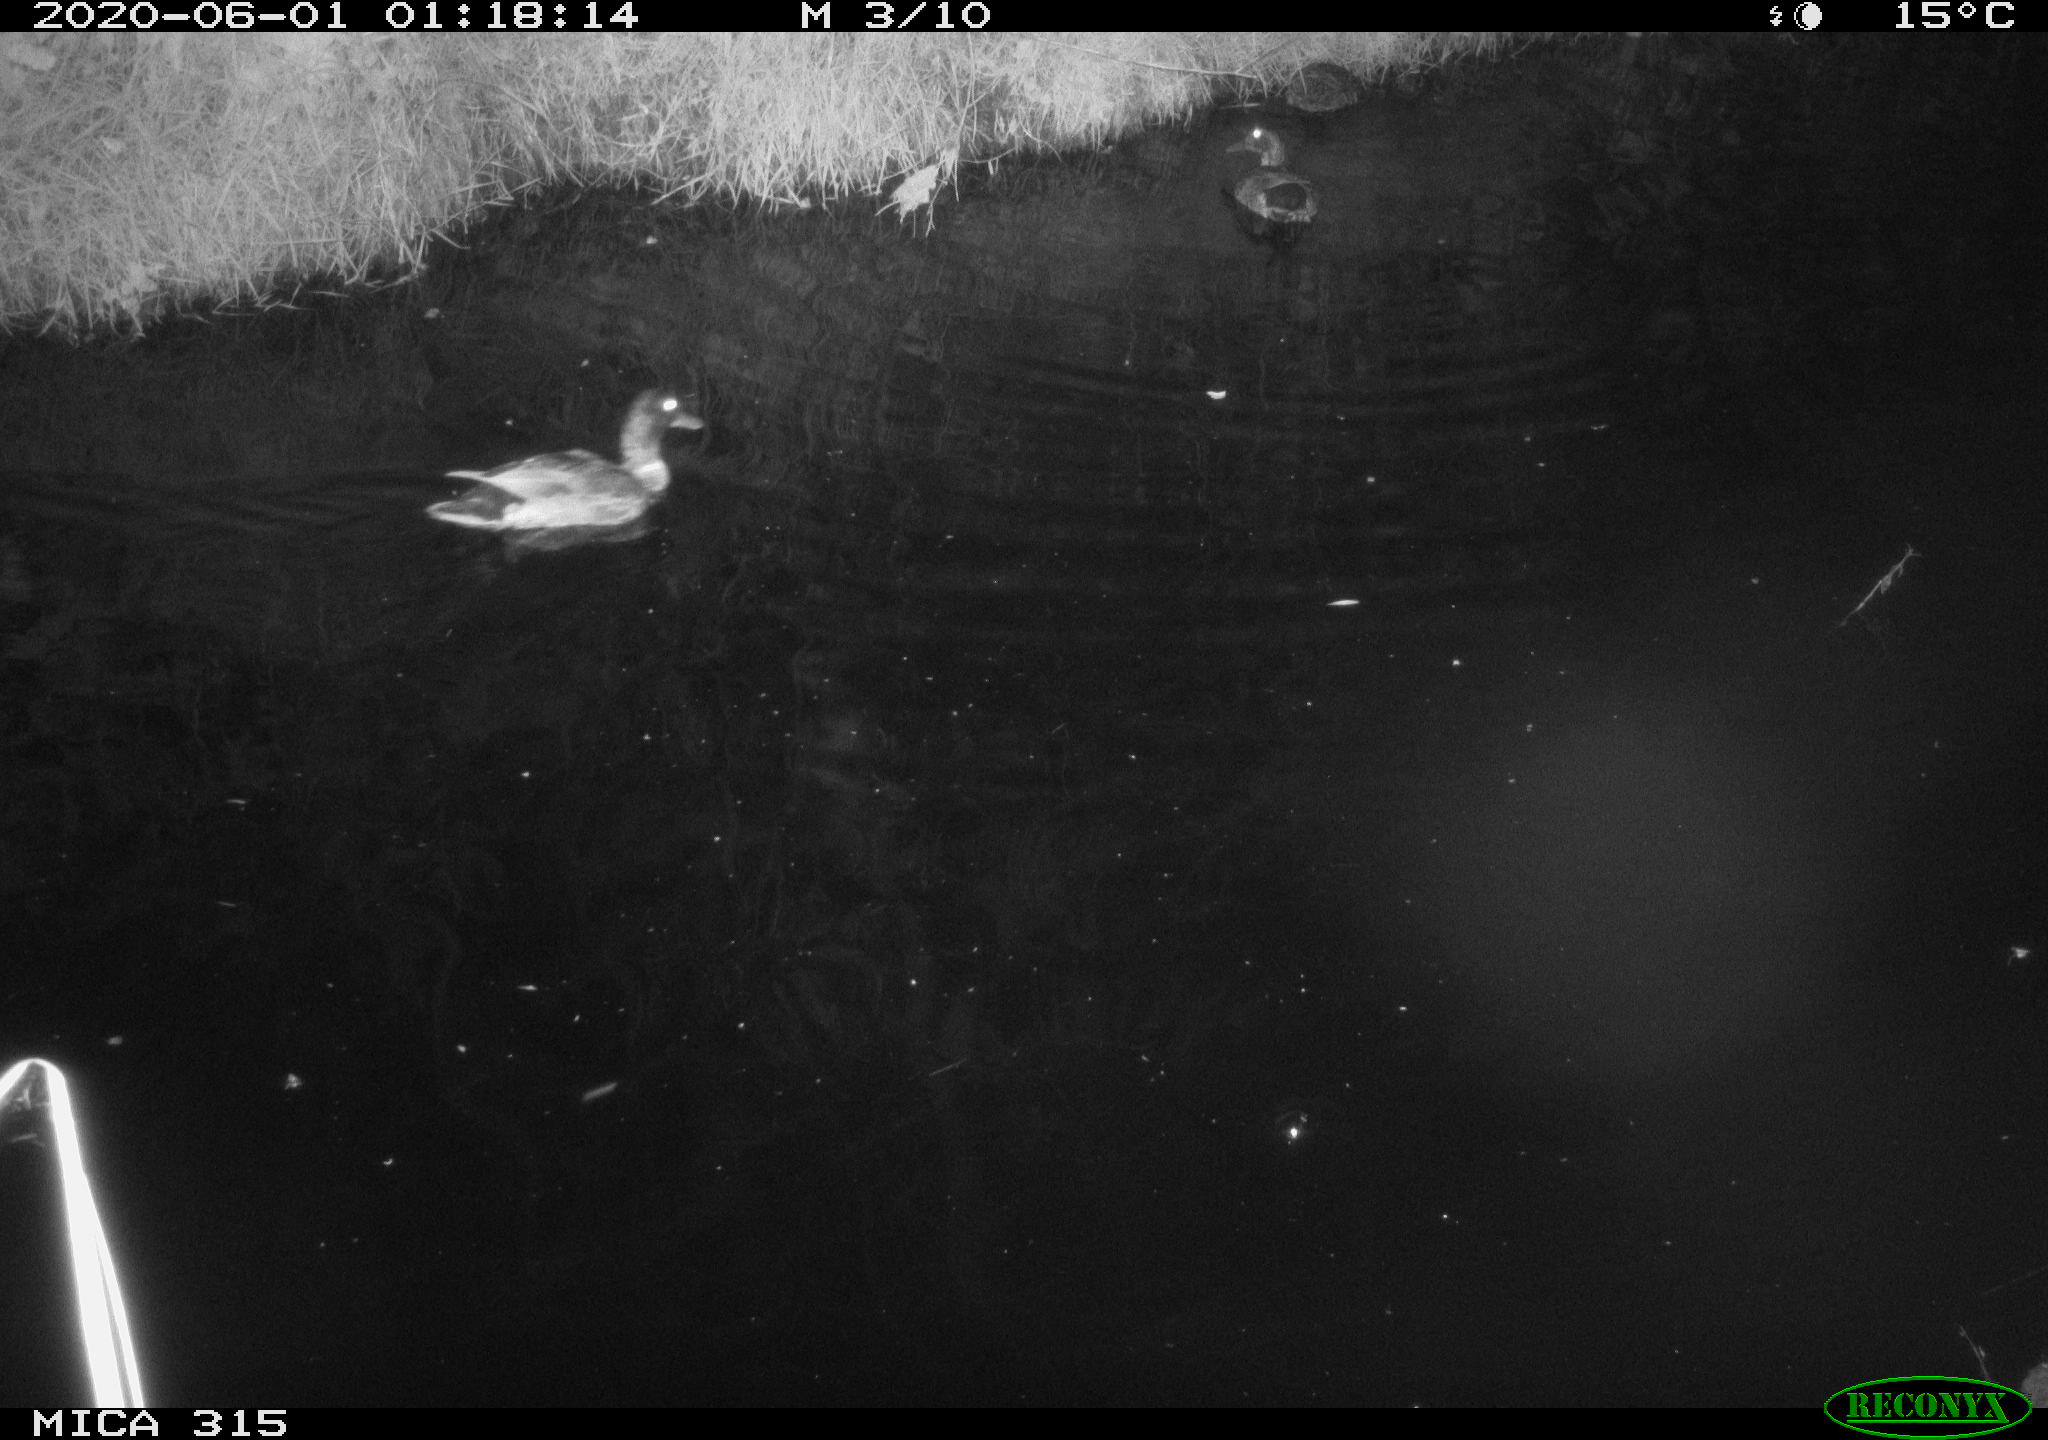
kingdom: Animalia
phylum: Chordata
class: Aves
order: Anseriformes
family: Anatidae
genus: Anas
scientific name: Anas platyrhynchos
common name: Mallard
